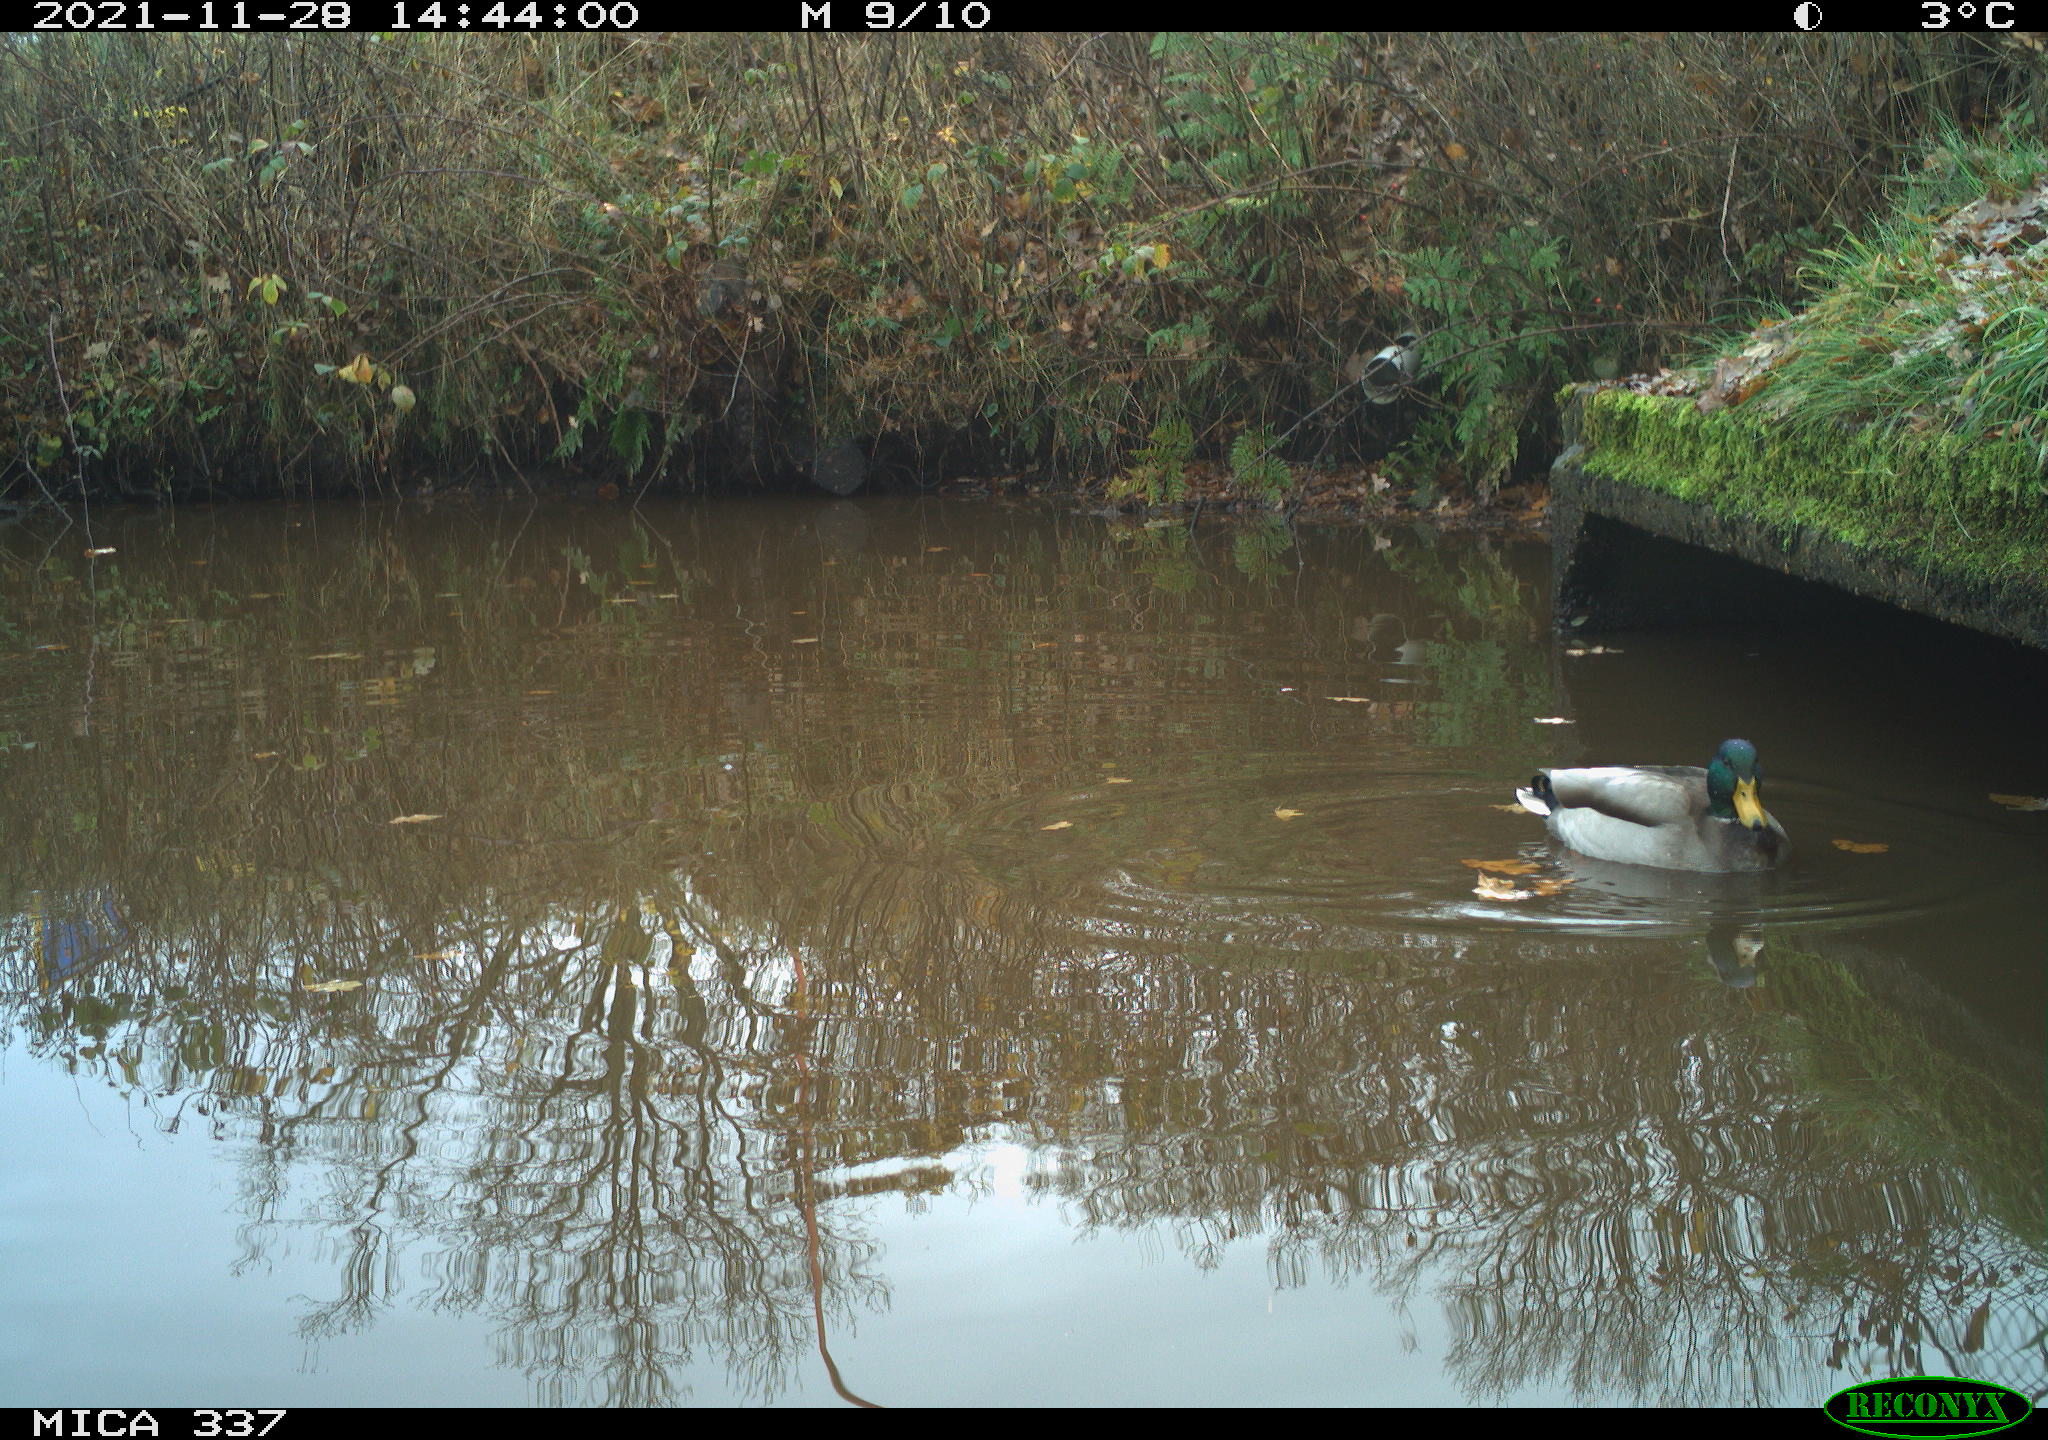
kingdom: Animalia
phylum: Chordata
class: Aves
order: Anseriformes
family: Anatidae
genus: Anas
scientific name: Anas platyrhynchos
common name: Mallard
